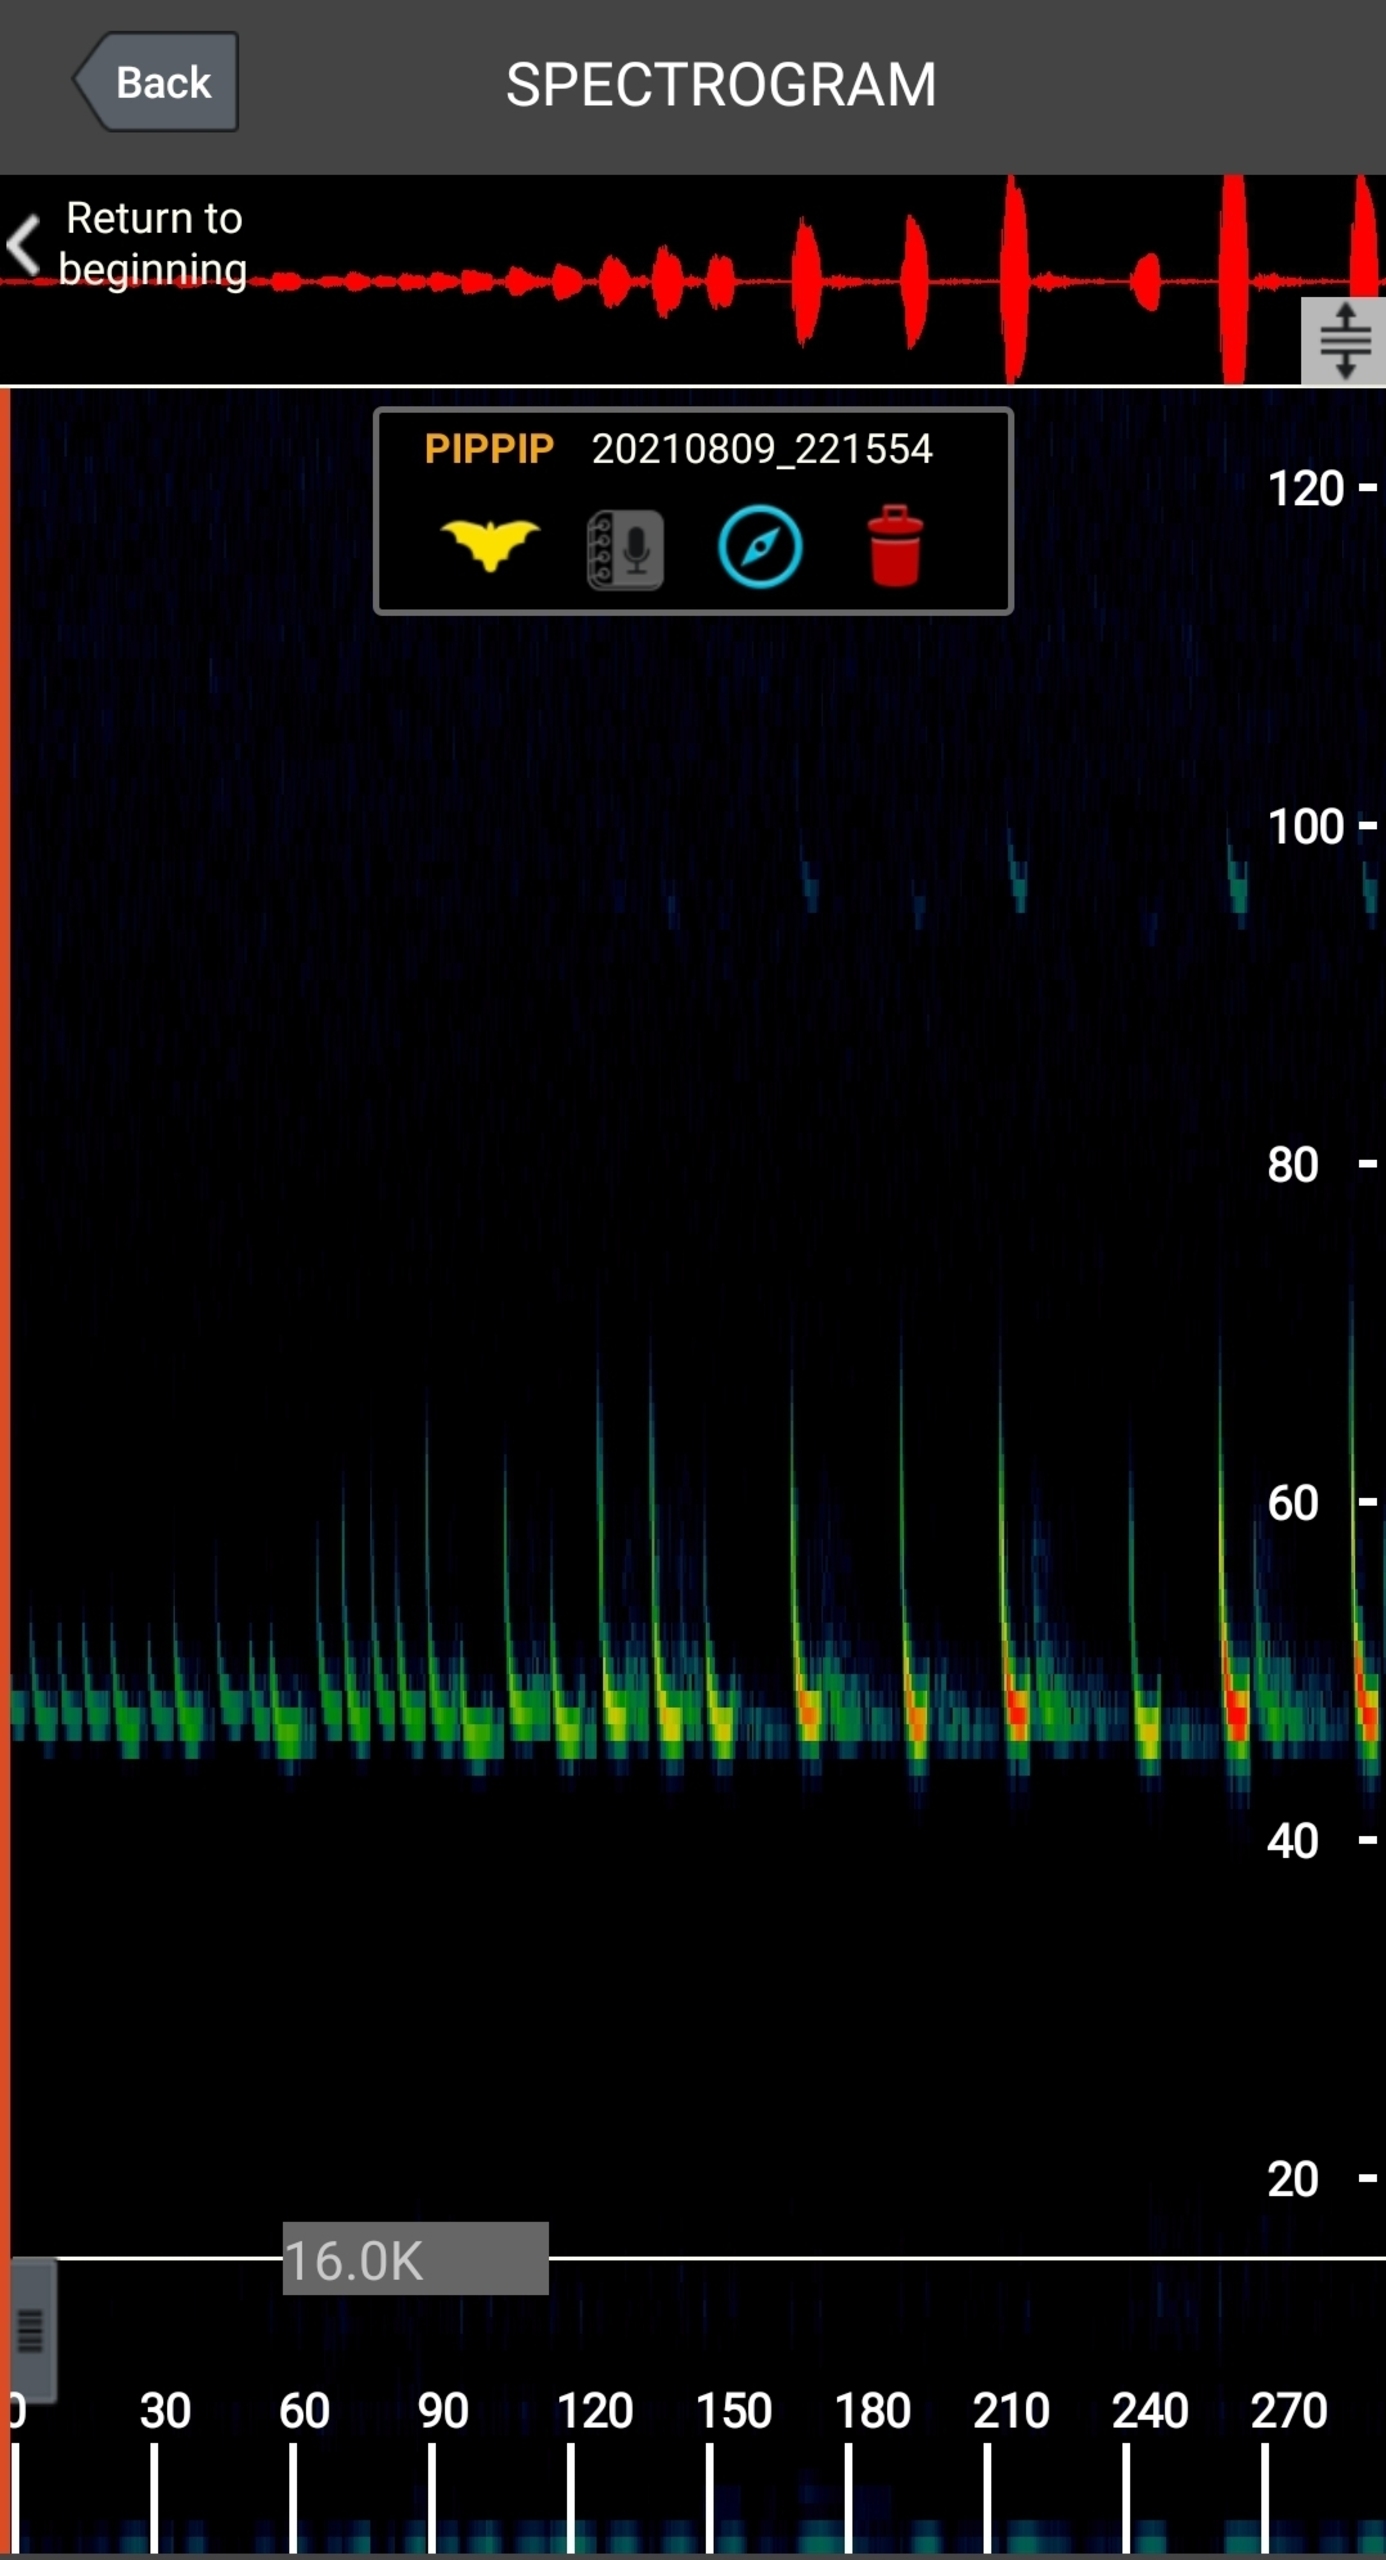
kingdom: Animalia
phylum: Chordata
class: Mammalia
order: Chiroptera
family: Vespertilionidae
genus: Pipistrellus
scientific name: Pipistrellus pipistrellus
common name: Pipistrelflagermus
